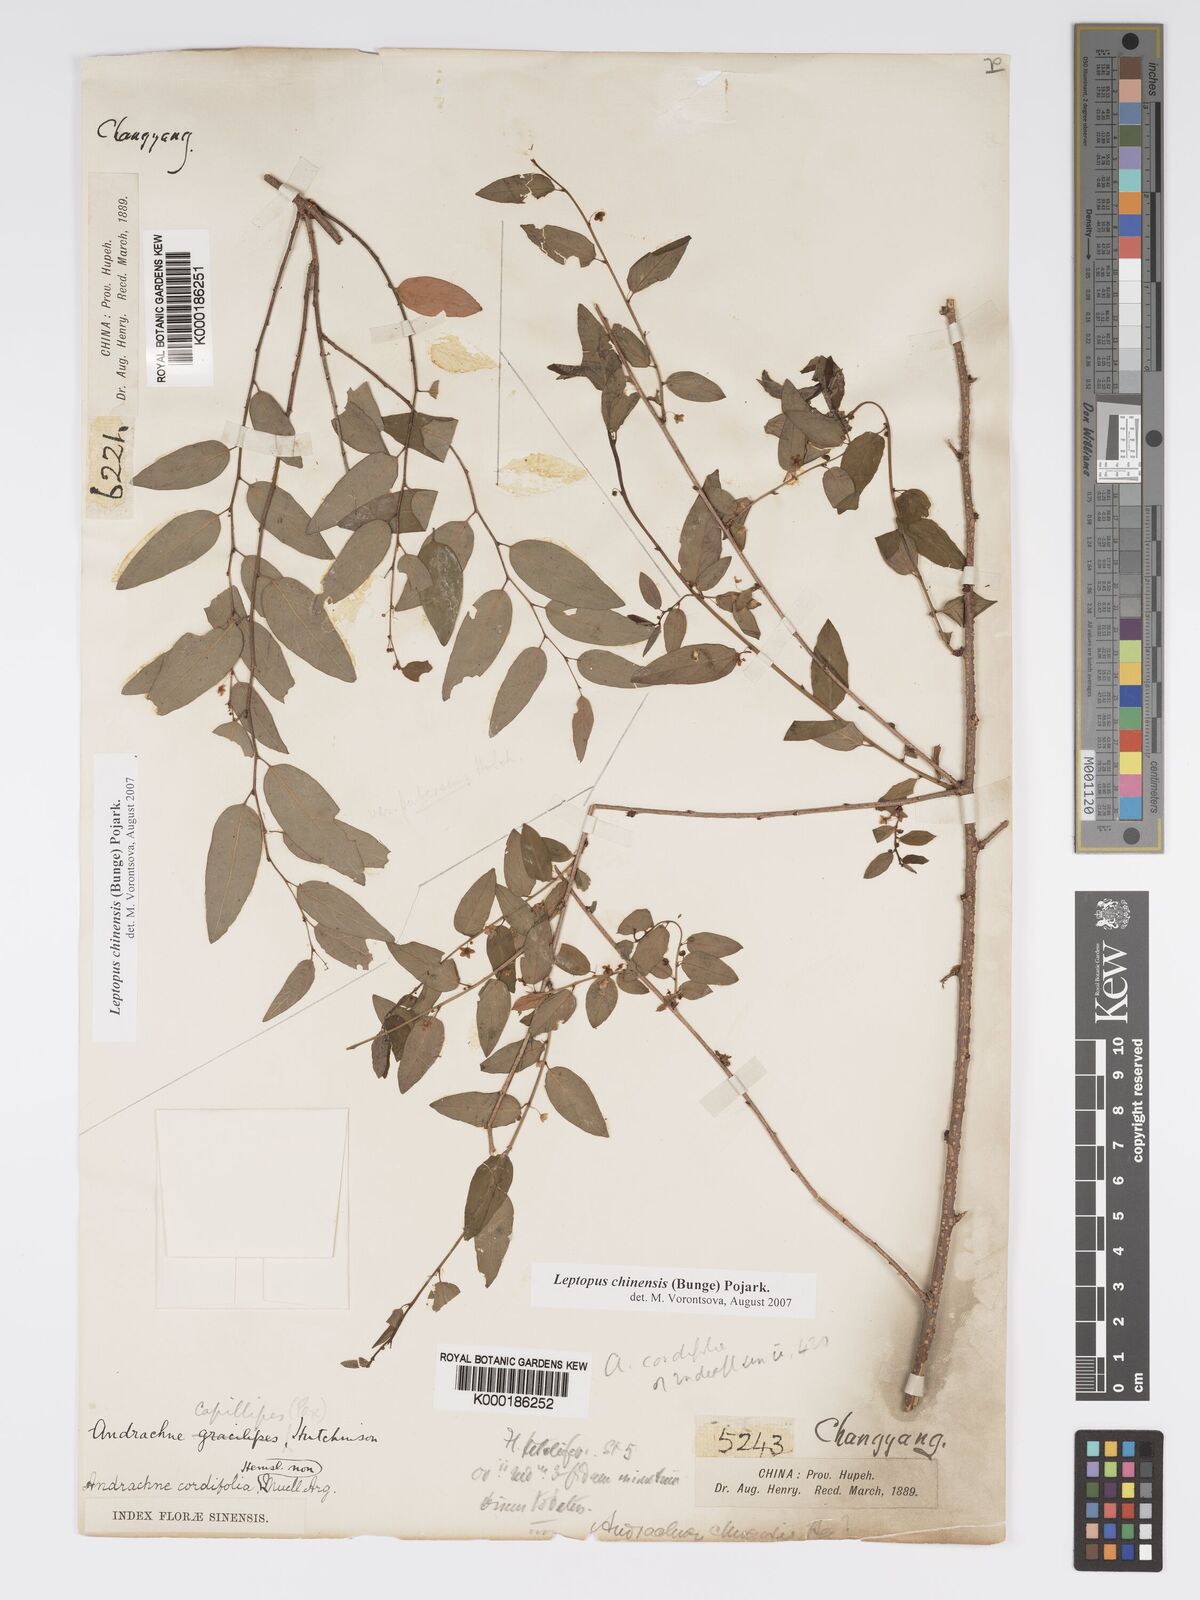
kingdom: Plantae
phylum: Tracheophyta
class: Magnoliopsida
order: Malpighiales
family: Phyllanthaceae
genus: Andrachne
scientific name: Andrachne
